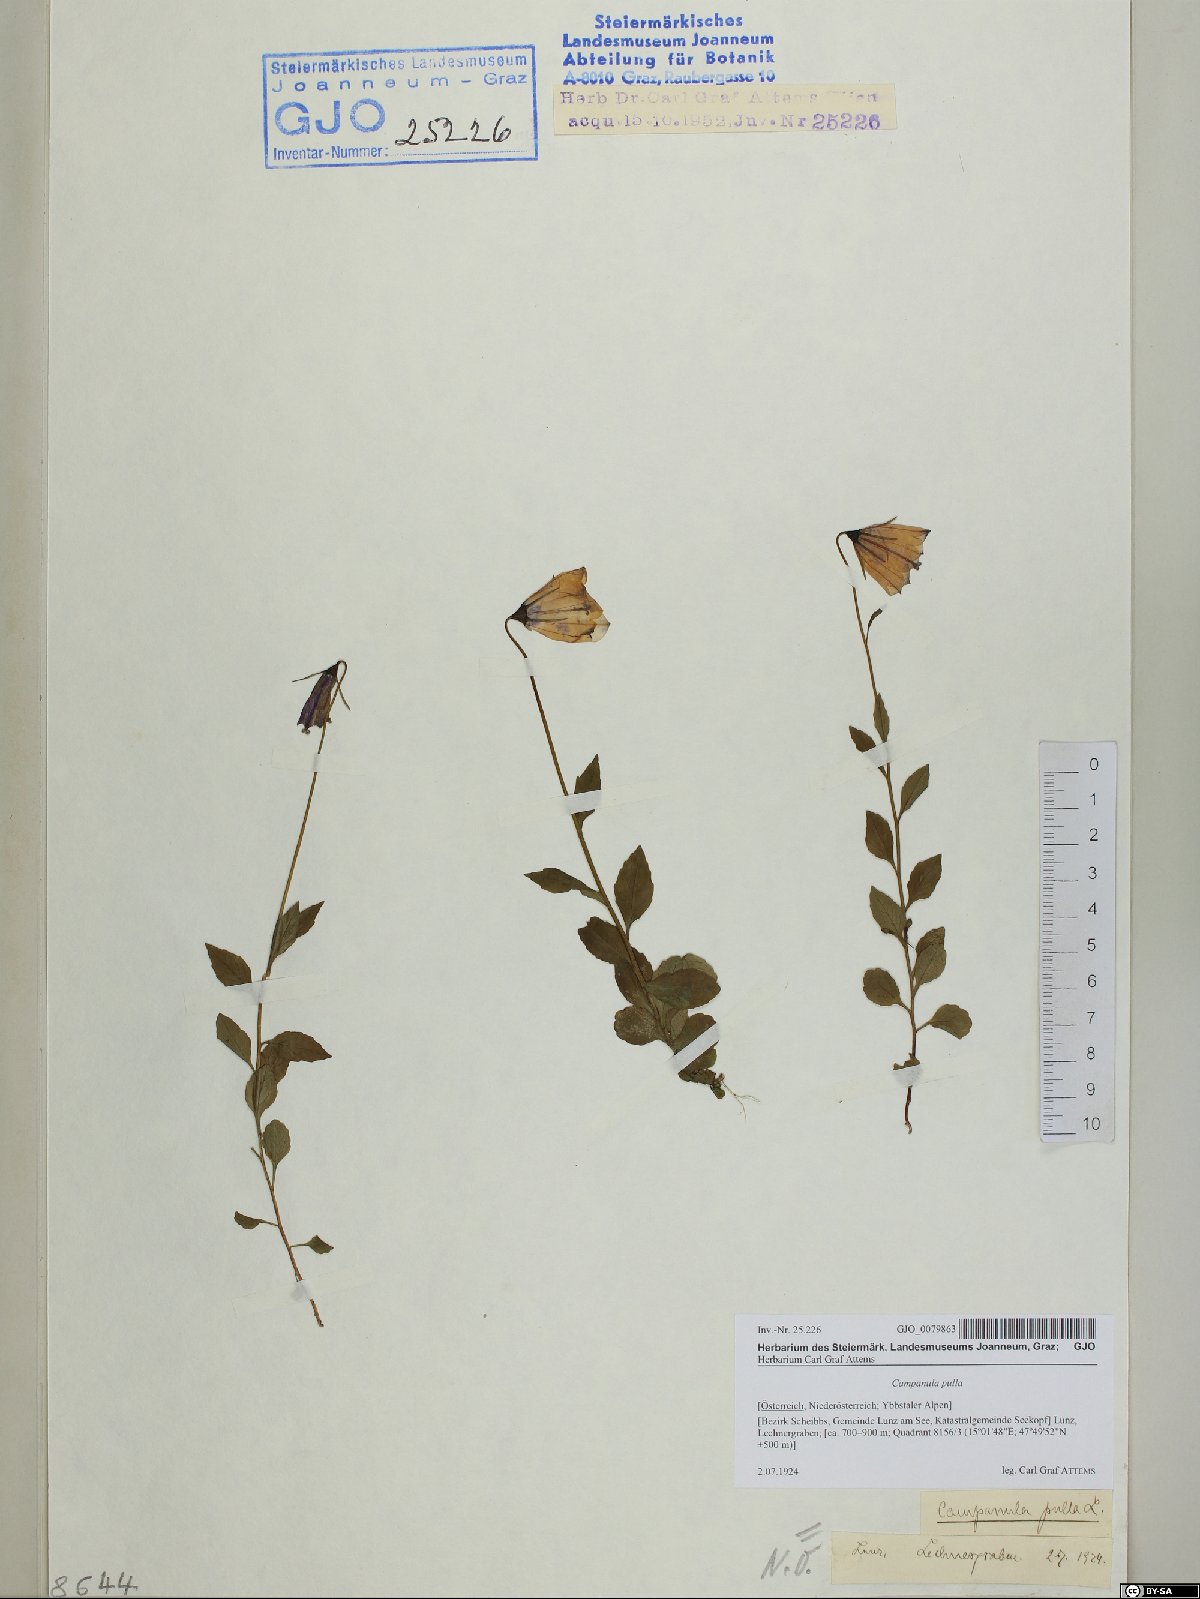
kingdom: Plantae
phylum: Tracheophyta
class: Magnoliopsida
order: Asterales
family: Campanulaceae
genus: Campanula
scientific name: Campanula pulla
